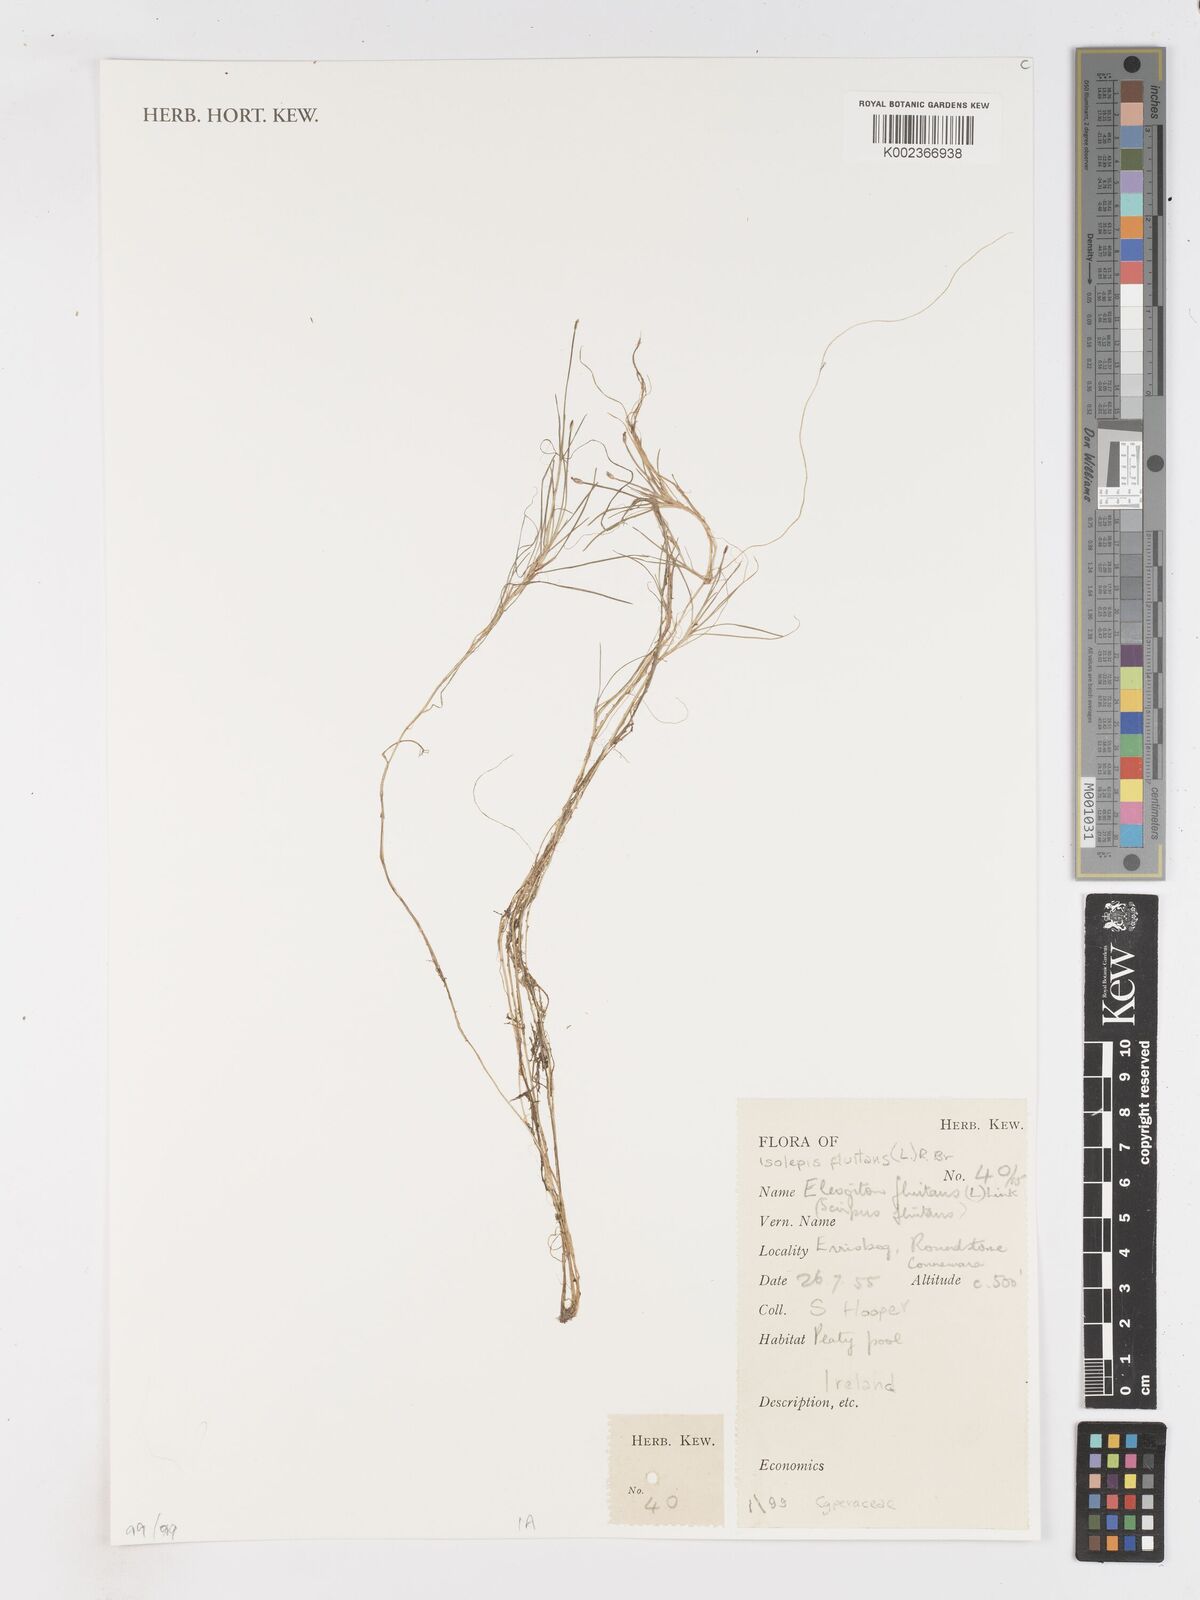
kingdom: Plantae
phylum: Tracheophyta
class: Liliopsida
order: Poales
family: Cyperaceae
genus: Isolepis
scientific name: Isolepis fluitans
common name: Floating club-rush
